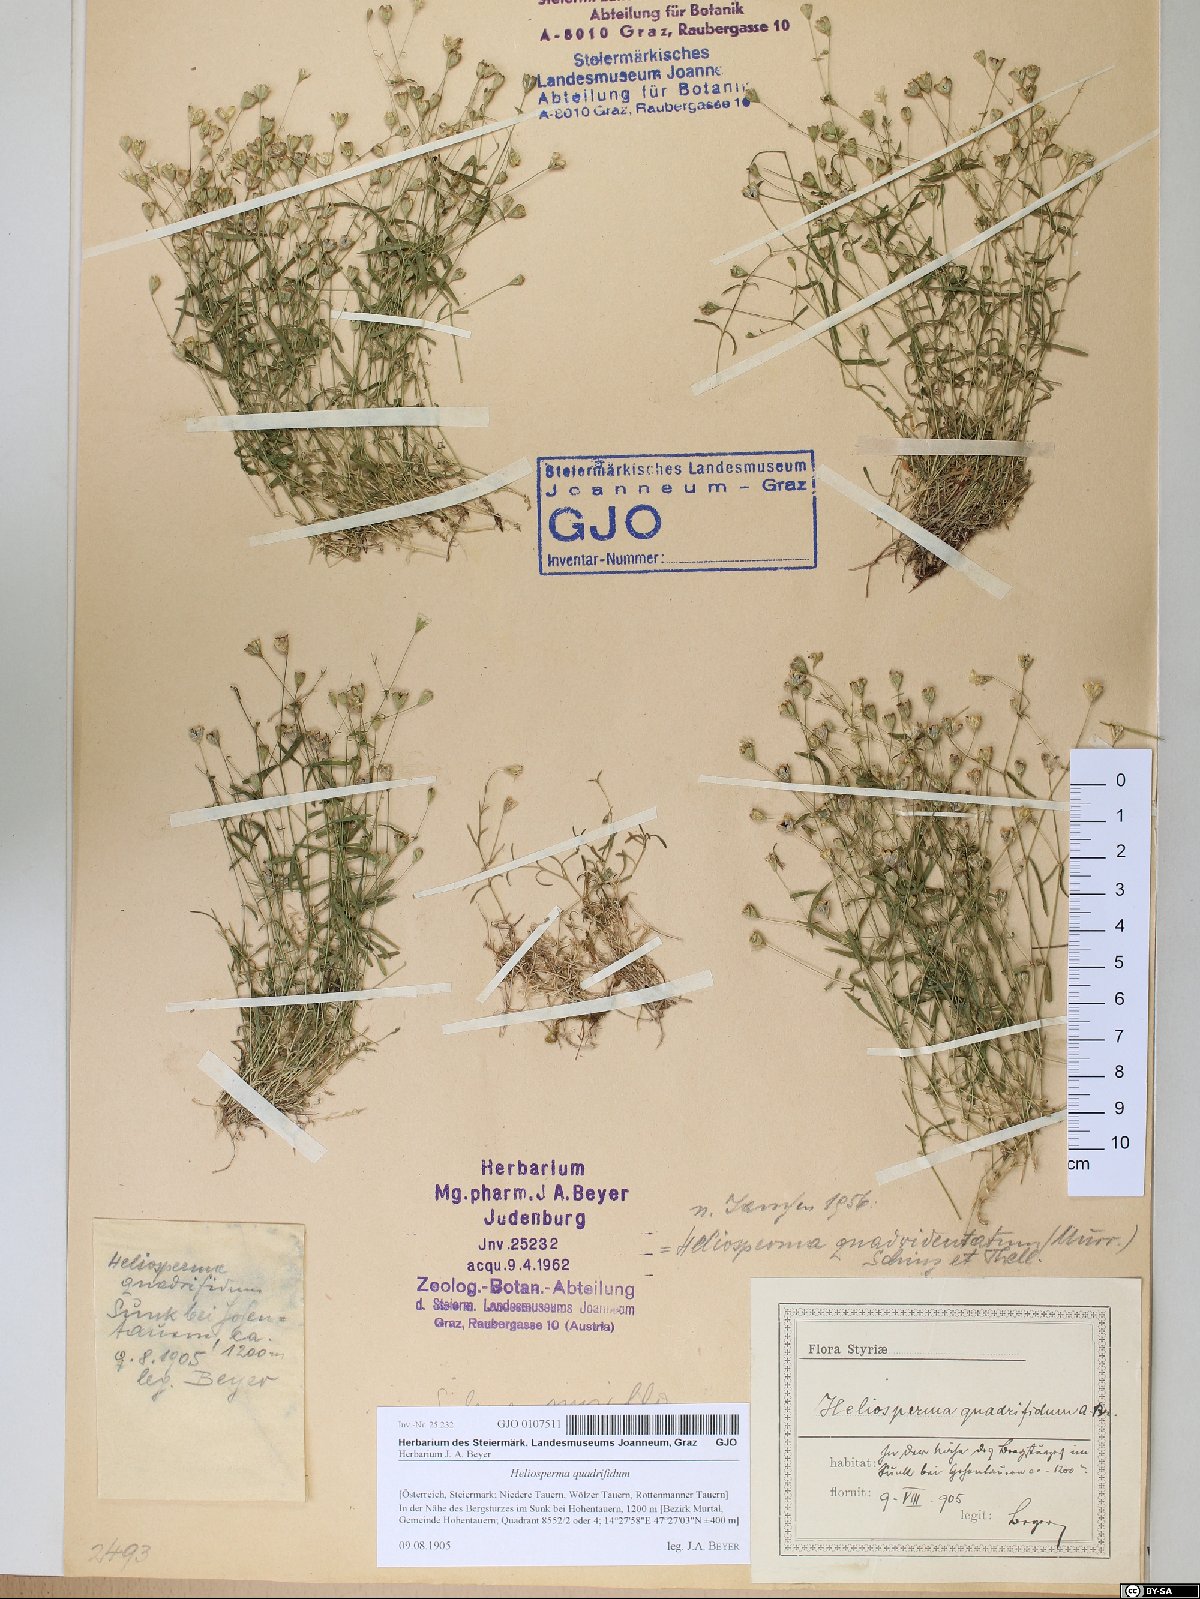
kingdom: Plantae
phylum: Tracheophyta
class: Magnoliopsida
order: Caryophyllales
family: Caryophyllaceae
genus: Heliosperma
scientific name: Heliosperma alpestre
